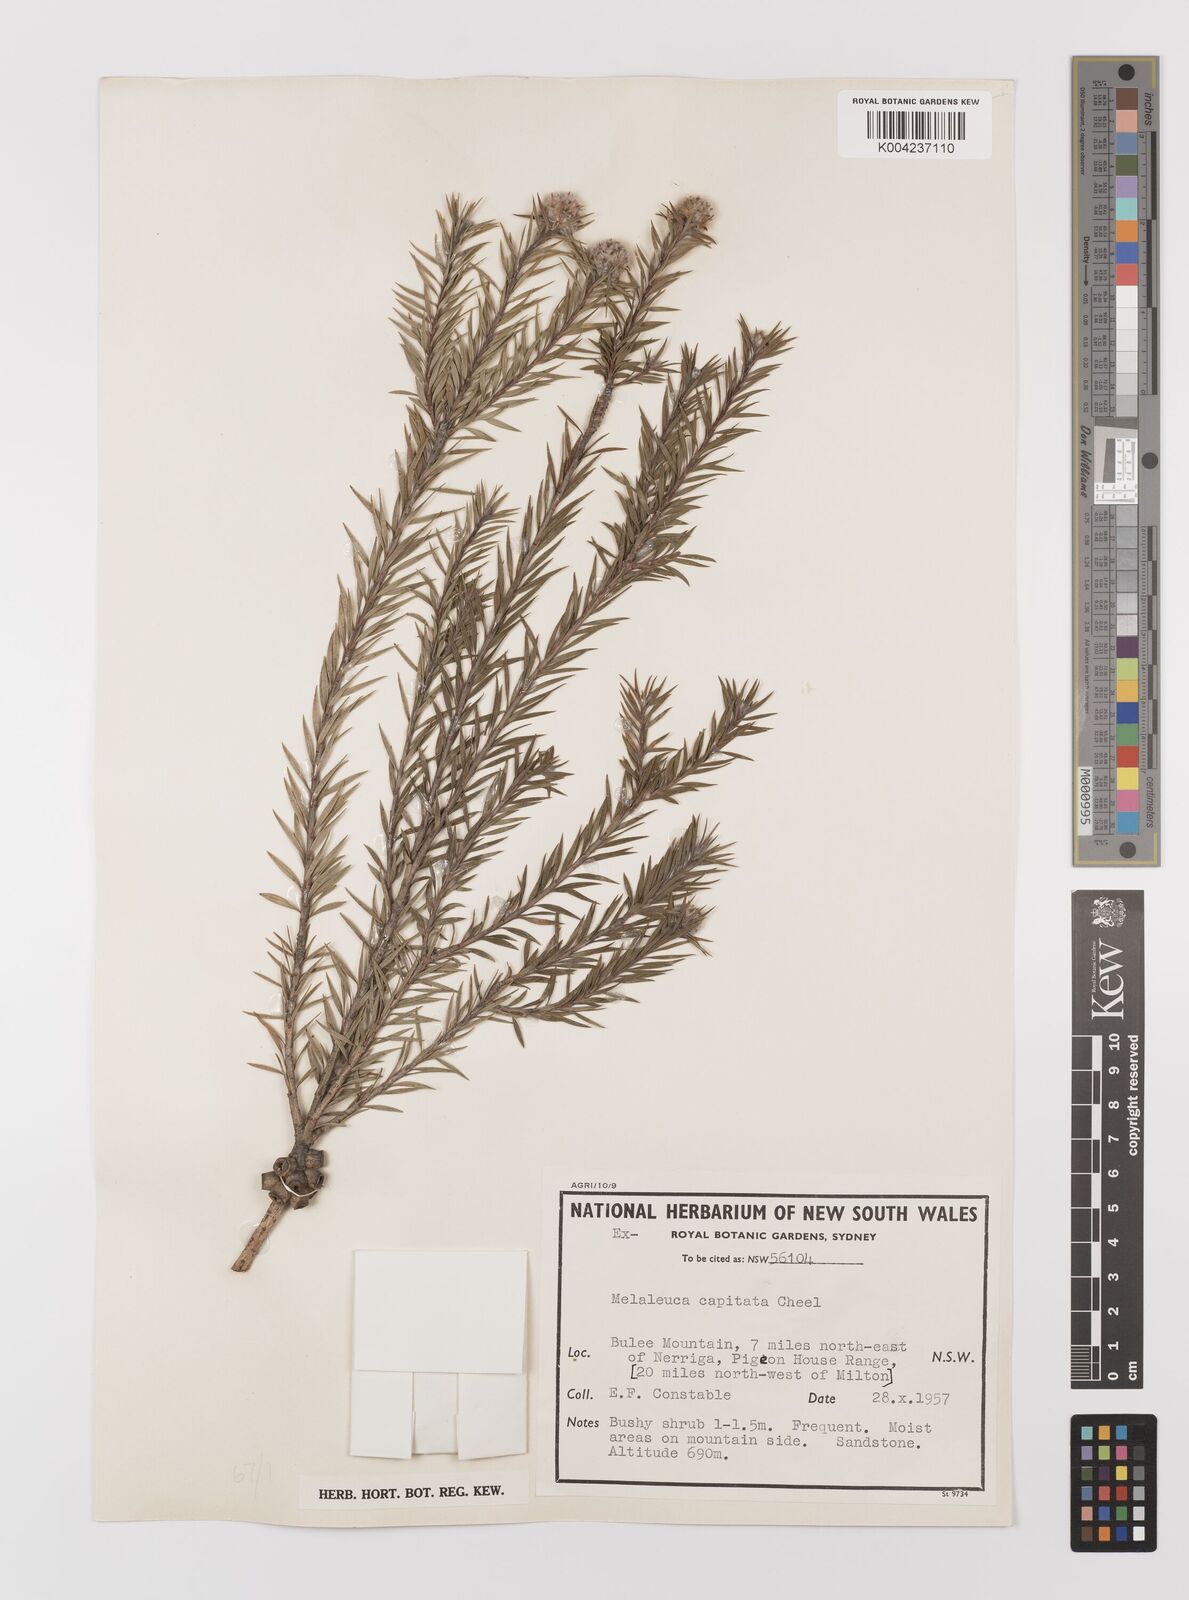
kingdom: Plantae
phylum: Tracheophyta
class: Magnoliopsida
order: Myrtales
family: Myrtaceae
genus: Melaleuca
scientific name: Melaleuca capitata
